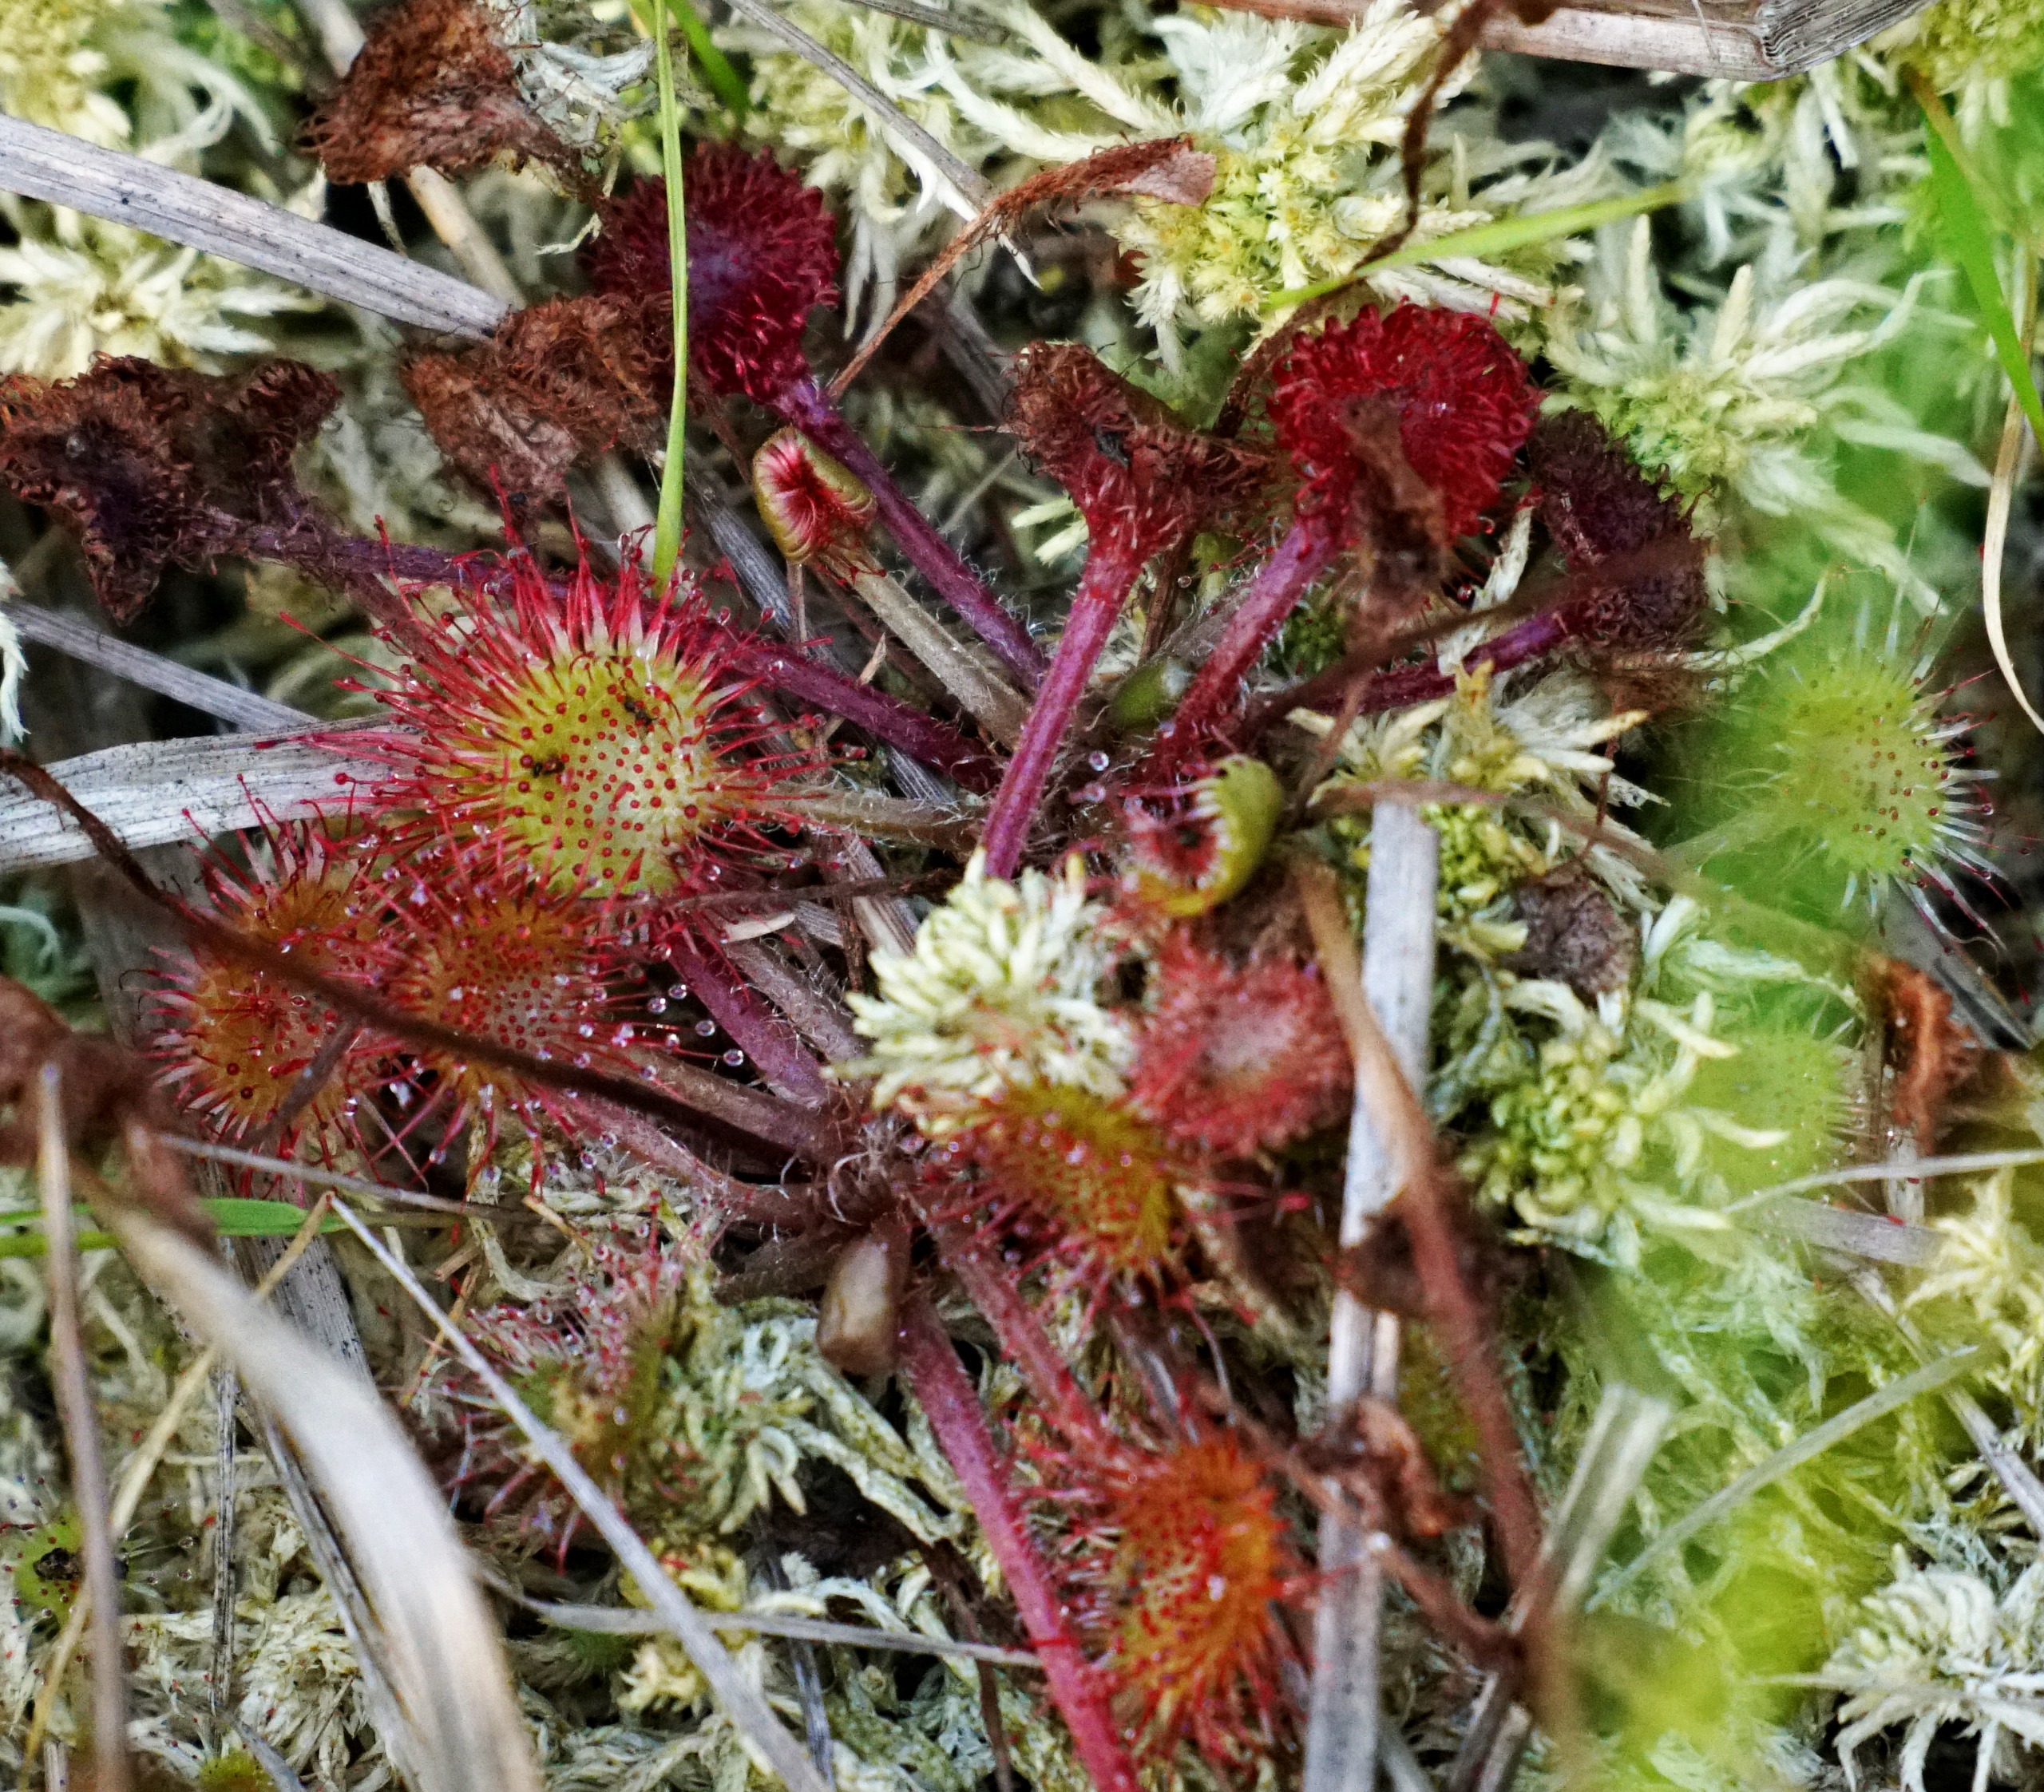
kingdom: Plantae
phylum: Tracheophyta
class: Magnoliopsida
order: Caryophyllales
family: Droseraceae
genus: Drosera
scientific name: Drosera rotundifolia
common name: Rundbladet soldug
